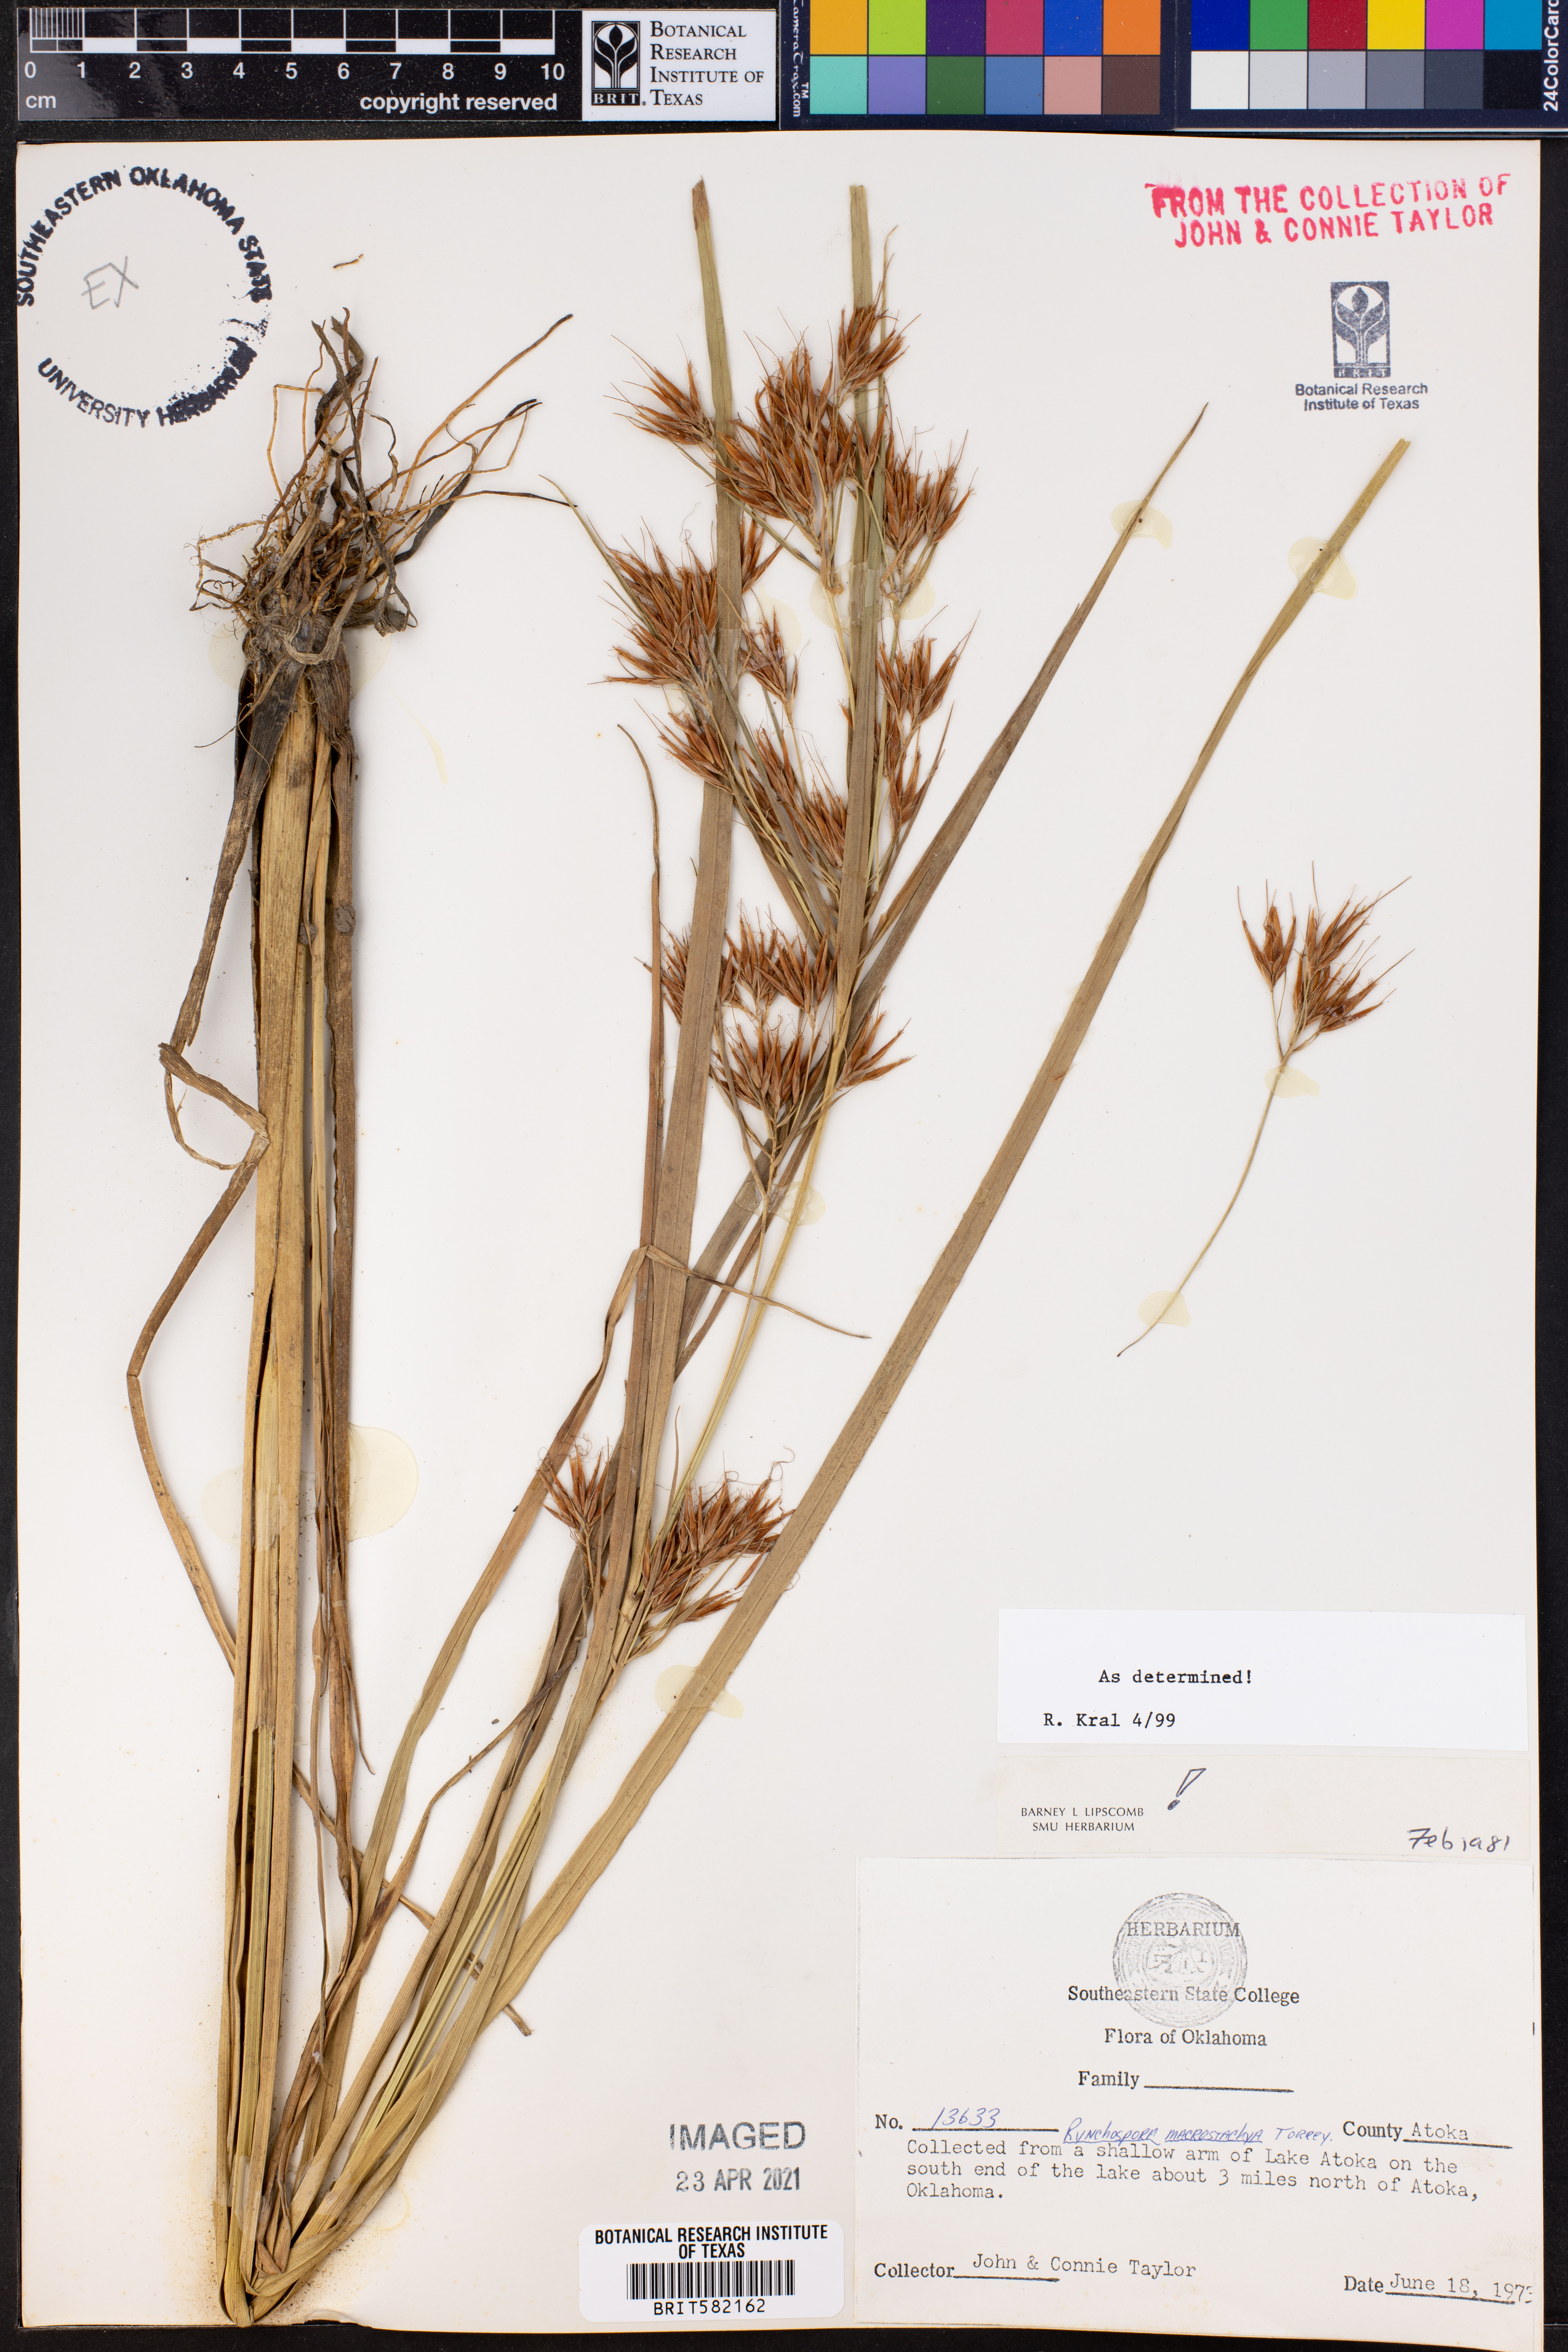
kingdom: Plantae
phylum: Tracheophyta
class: Liliopsida
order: Poales
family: Cyperaceae
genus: Rhynchospora
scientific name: Rhynchospora macrostachya
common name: Tall beakrush
